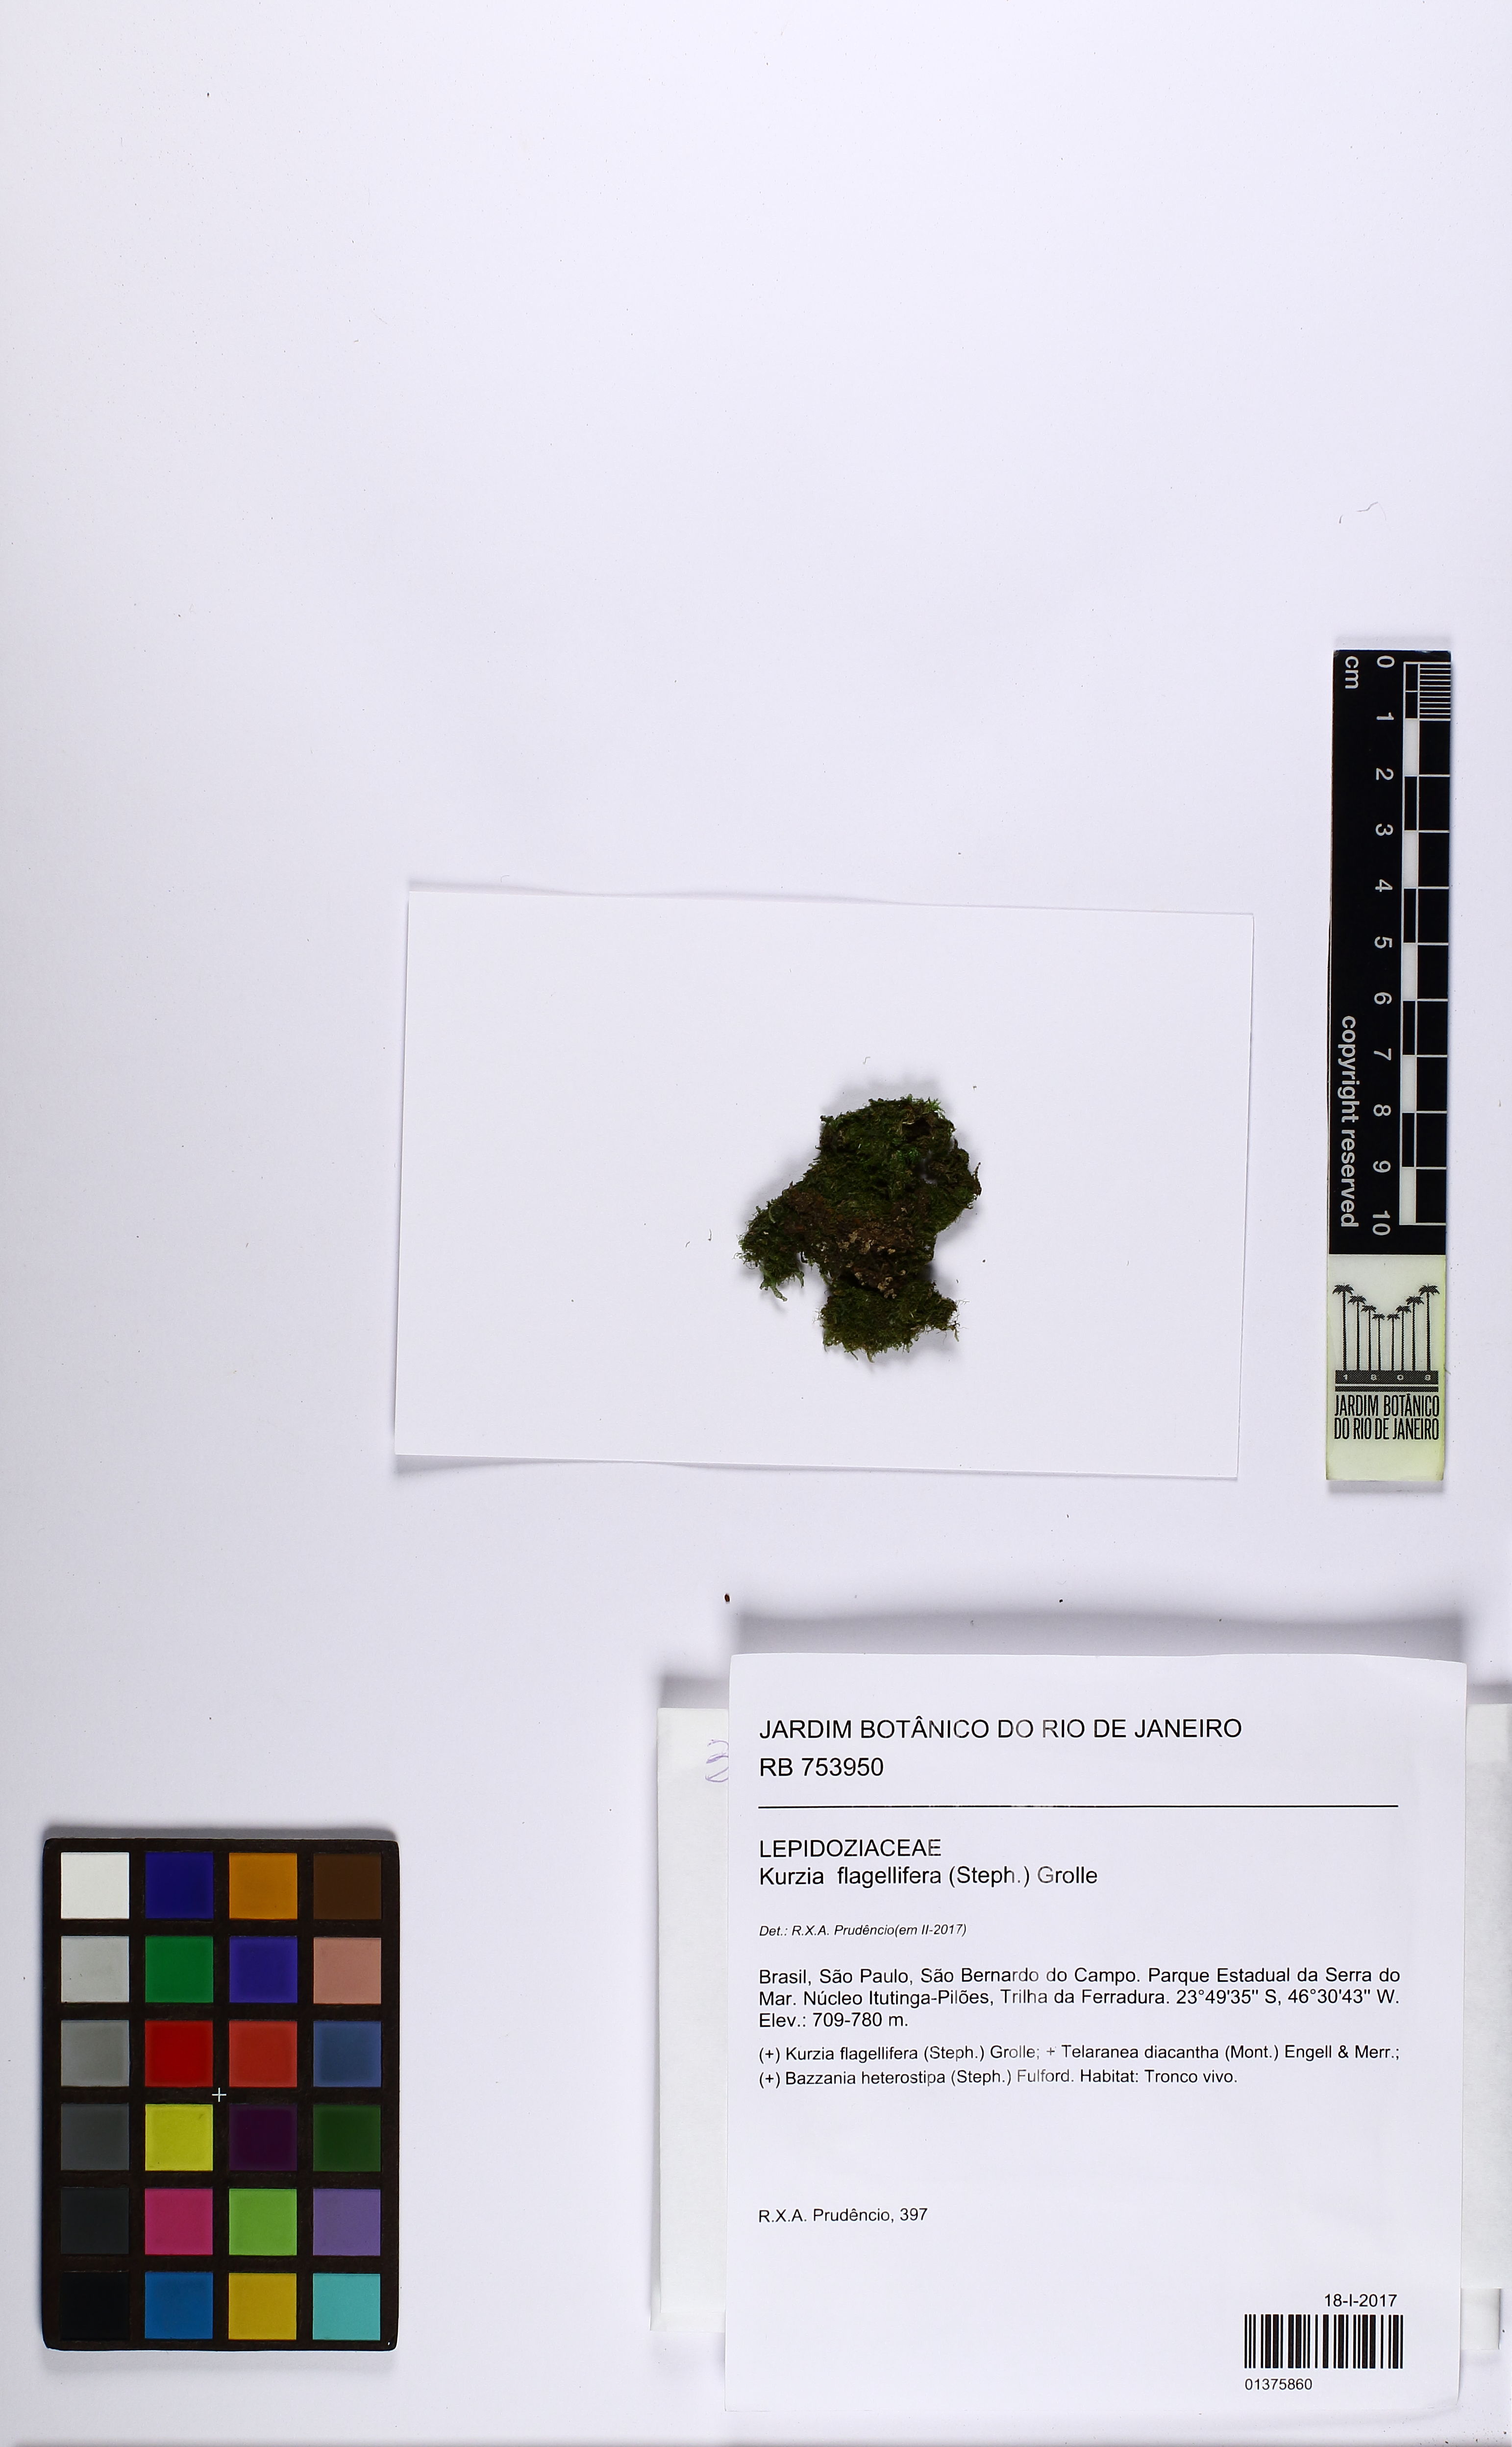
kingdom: Plantae
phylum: Marchantiophyta
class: Jungermanniopsida
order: Jungermanniales
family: Lepidoziaceae
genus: Kurzia
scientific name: Kurzia flagellifera
